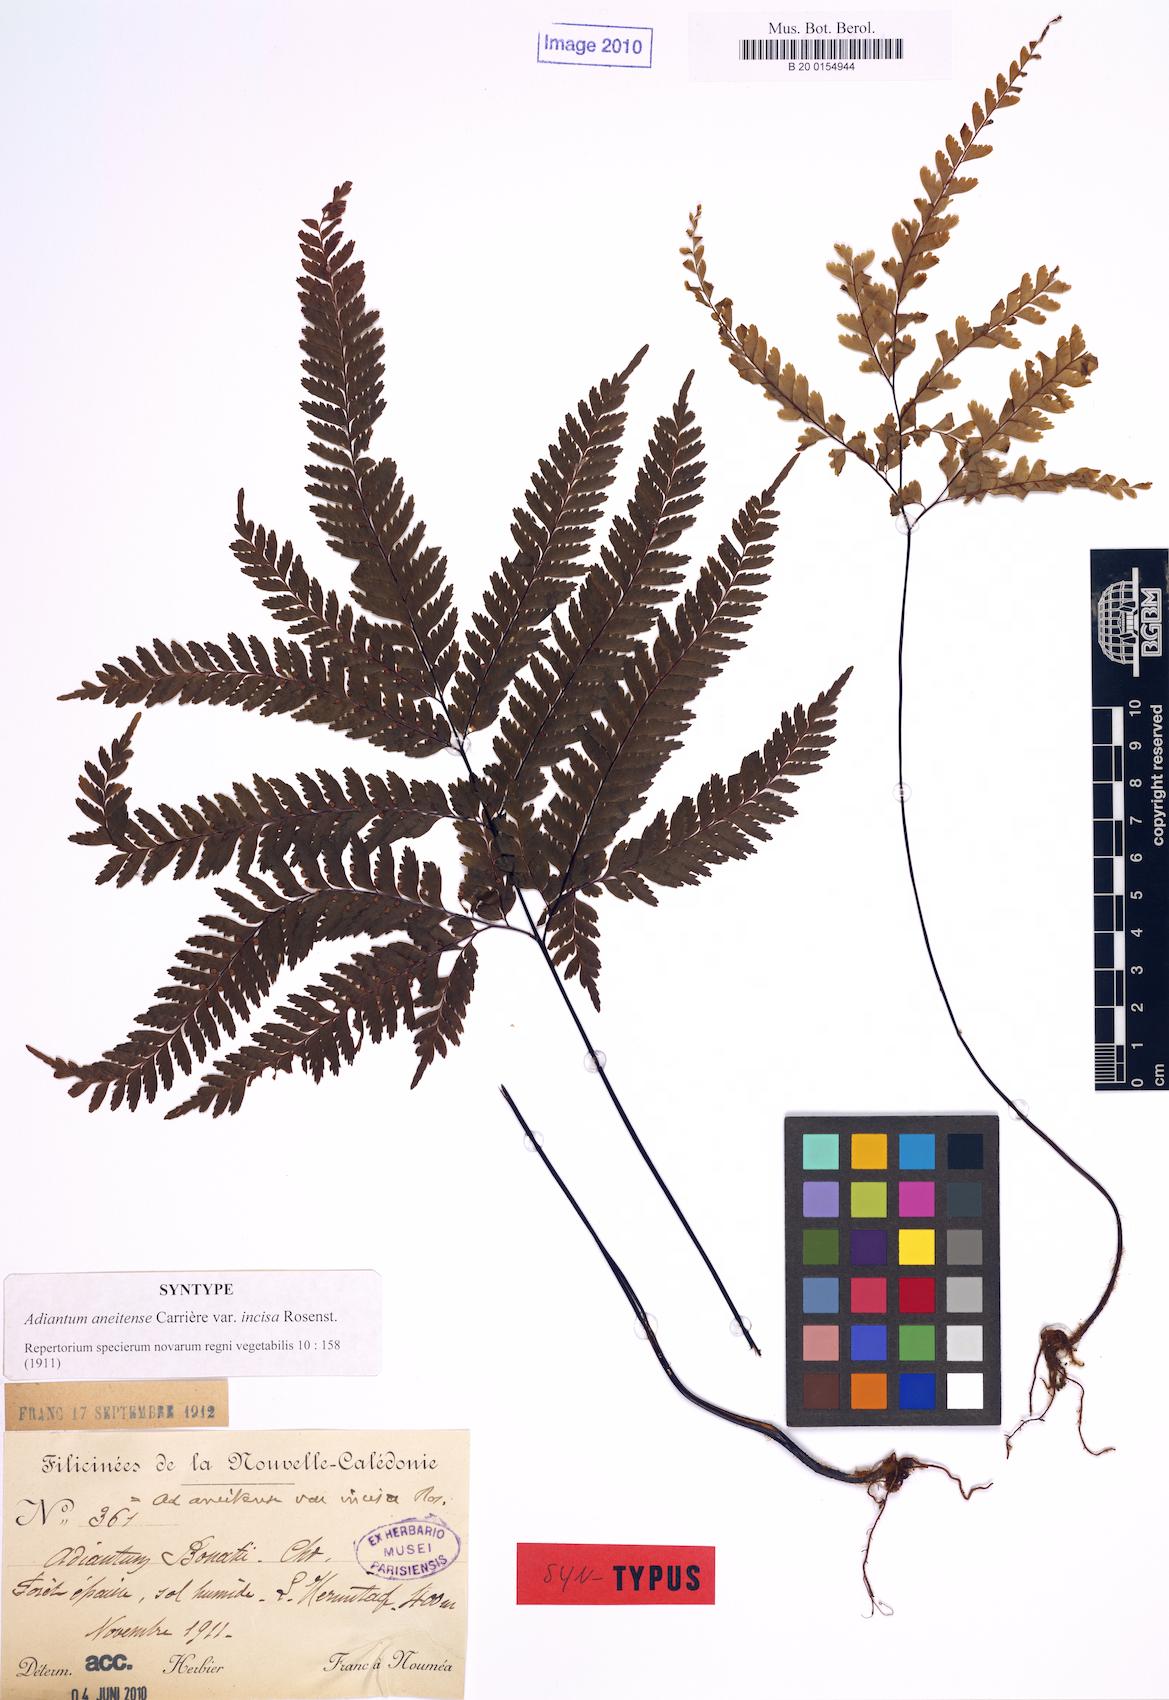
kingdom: Plantae
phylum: Tracheophyta
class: Polypodiopsida
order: Polypodiales
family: Pteridaceae
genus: Adiantum
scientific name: Adiantum novae-caledoniae
